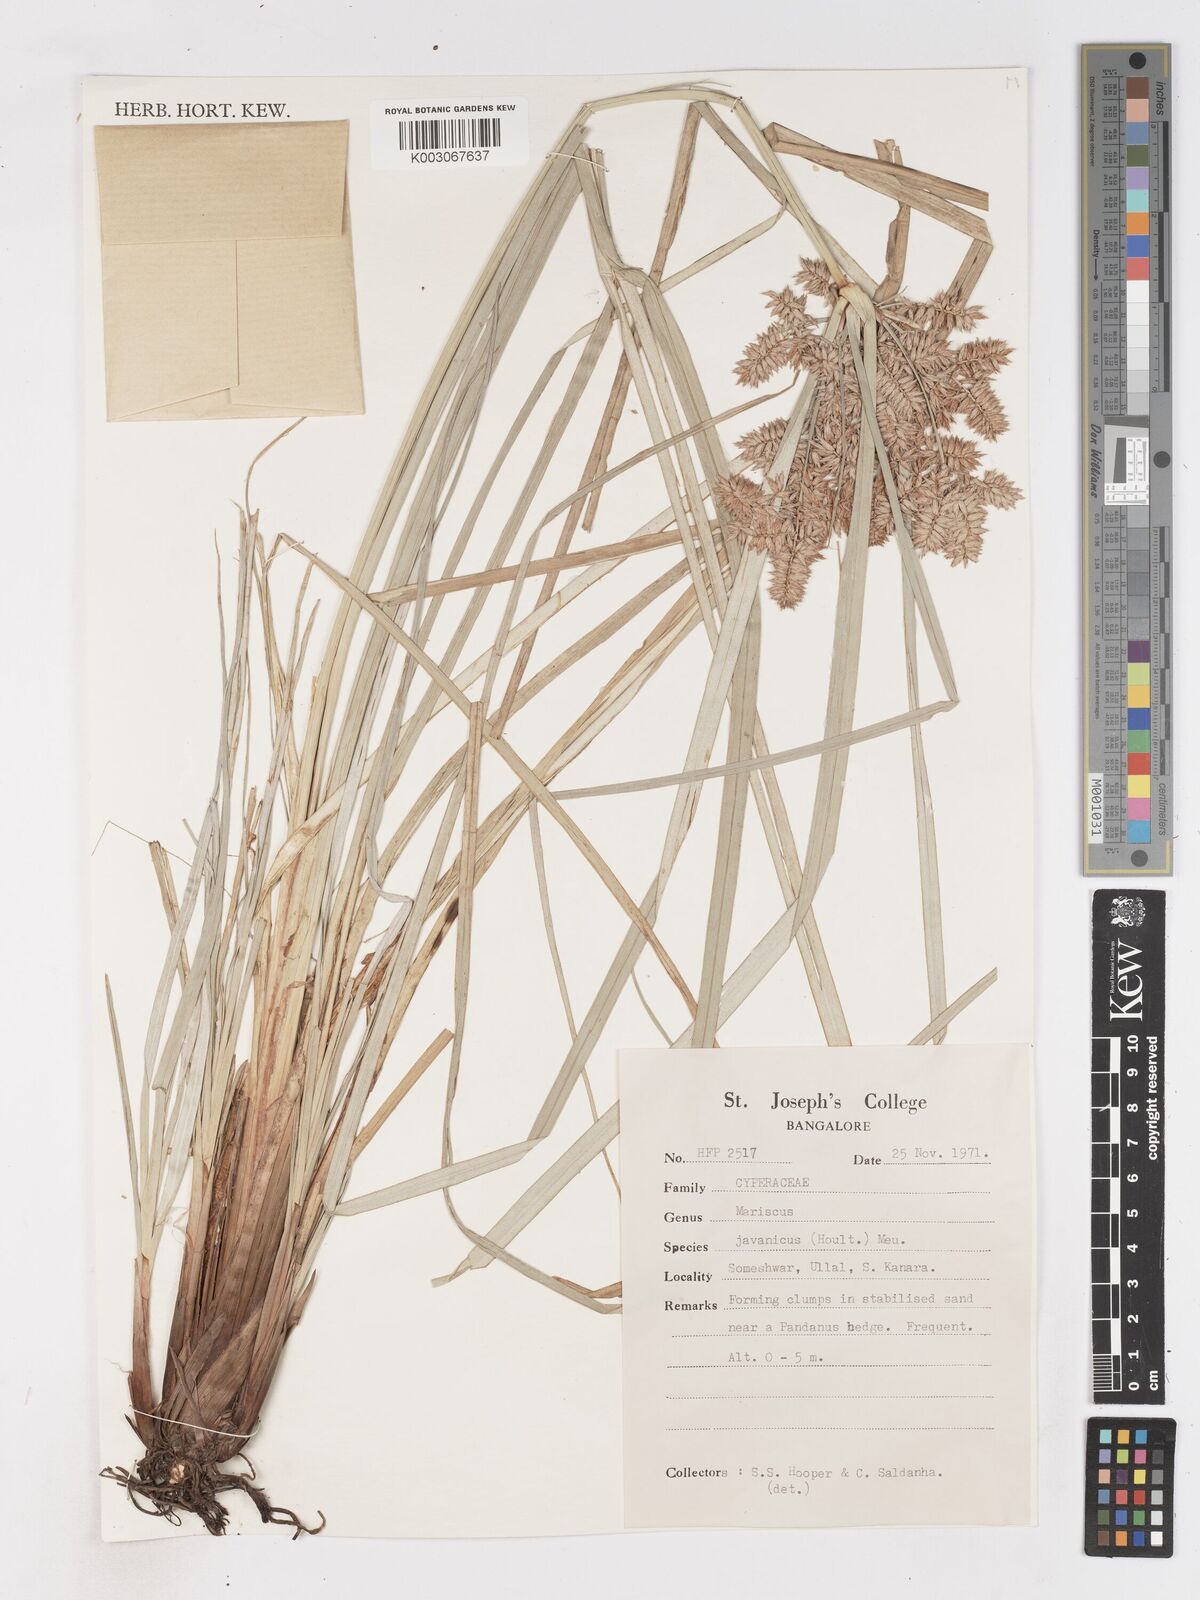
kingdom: Plantae
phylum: Tracheophyta
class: Liliopsida
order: Poales
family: Cyperaceae
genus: Cyperus
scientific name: Cyperus javanicus
